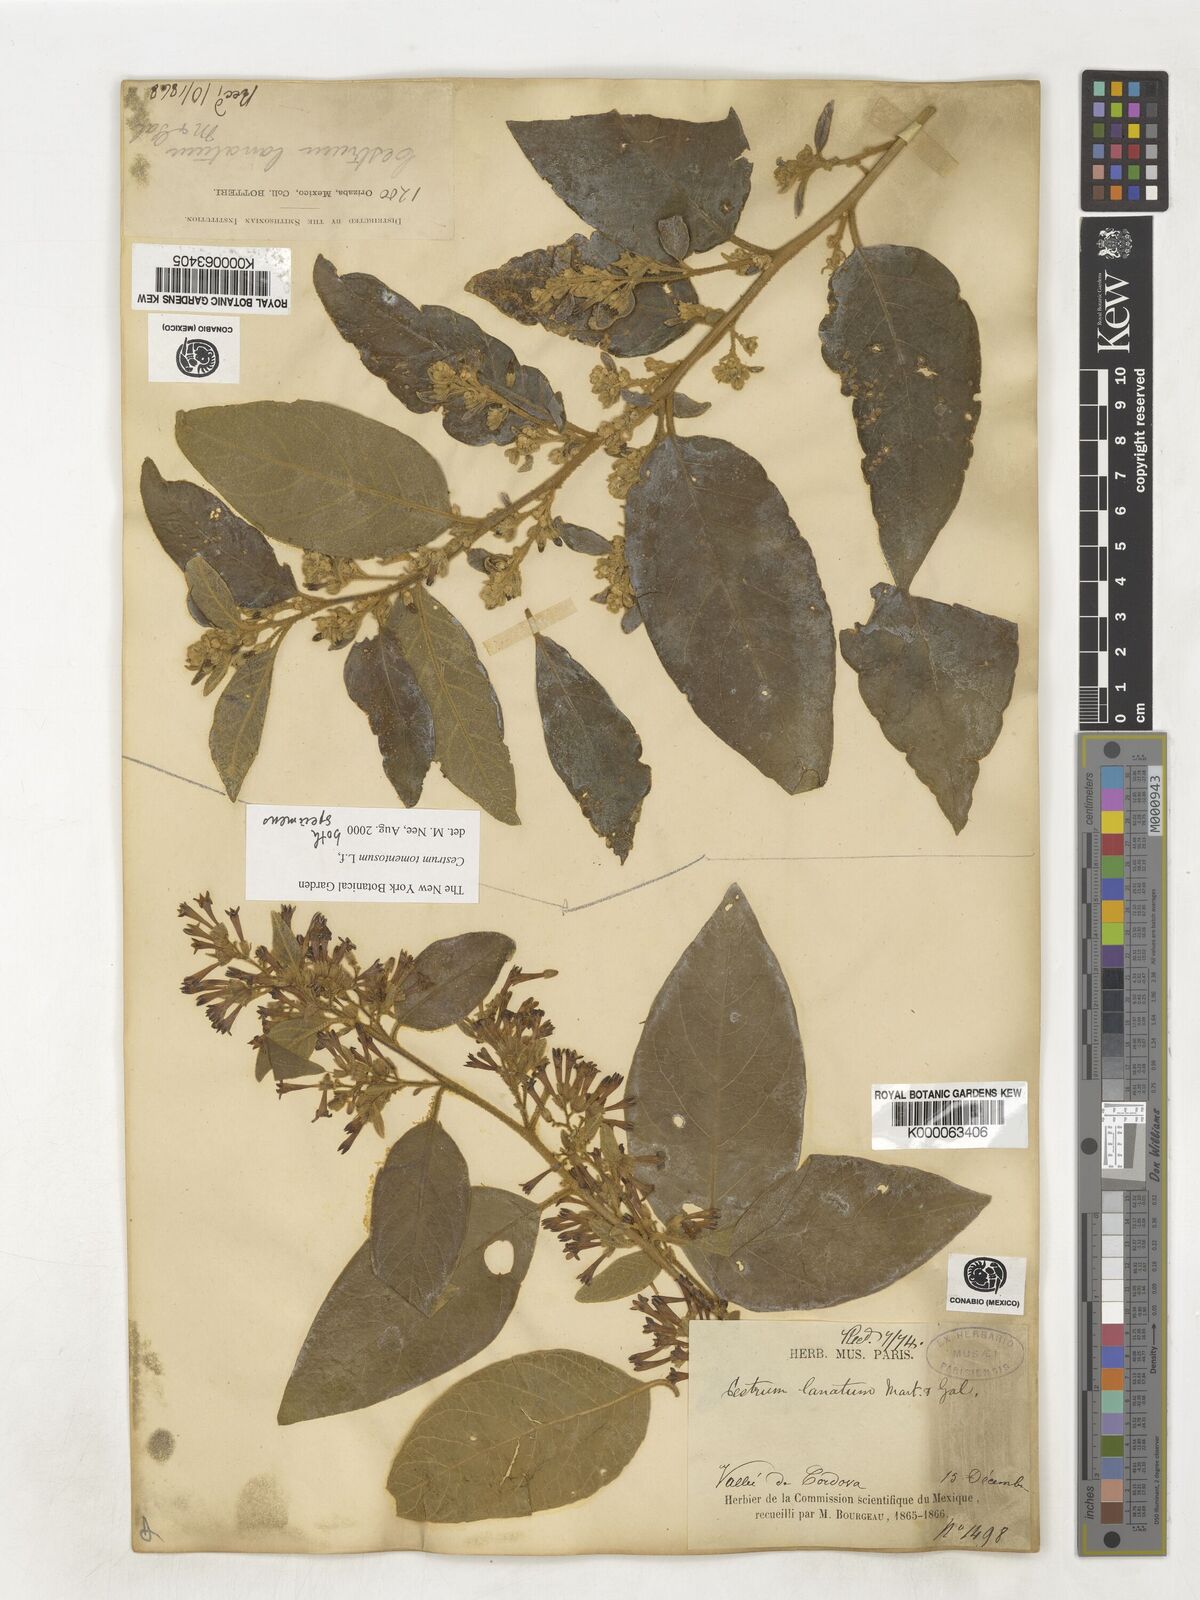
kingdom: Plantae
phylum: Tracheophyta
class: Magnoliopsida
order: Solanales
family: Solanaceae
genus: Cestrum
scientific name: Cestrum tomentosum
